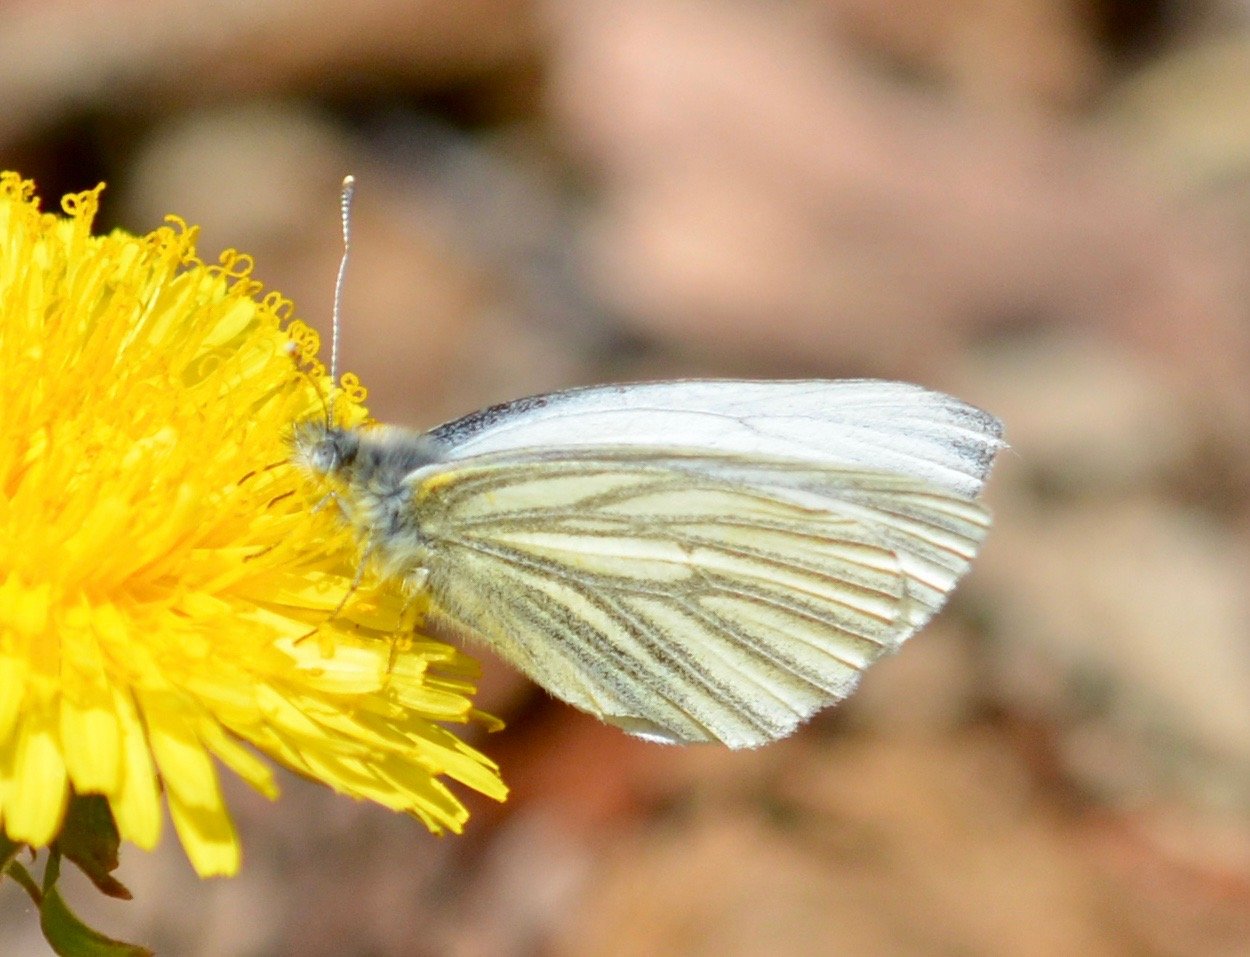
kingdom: Animalia
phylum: Arthropoda
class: Insecta
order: Lepidoptera
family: Pieridae
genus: Pieris
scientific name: Pieris angelika
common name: Arctic White
